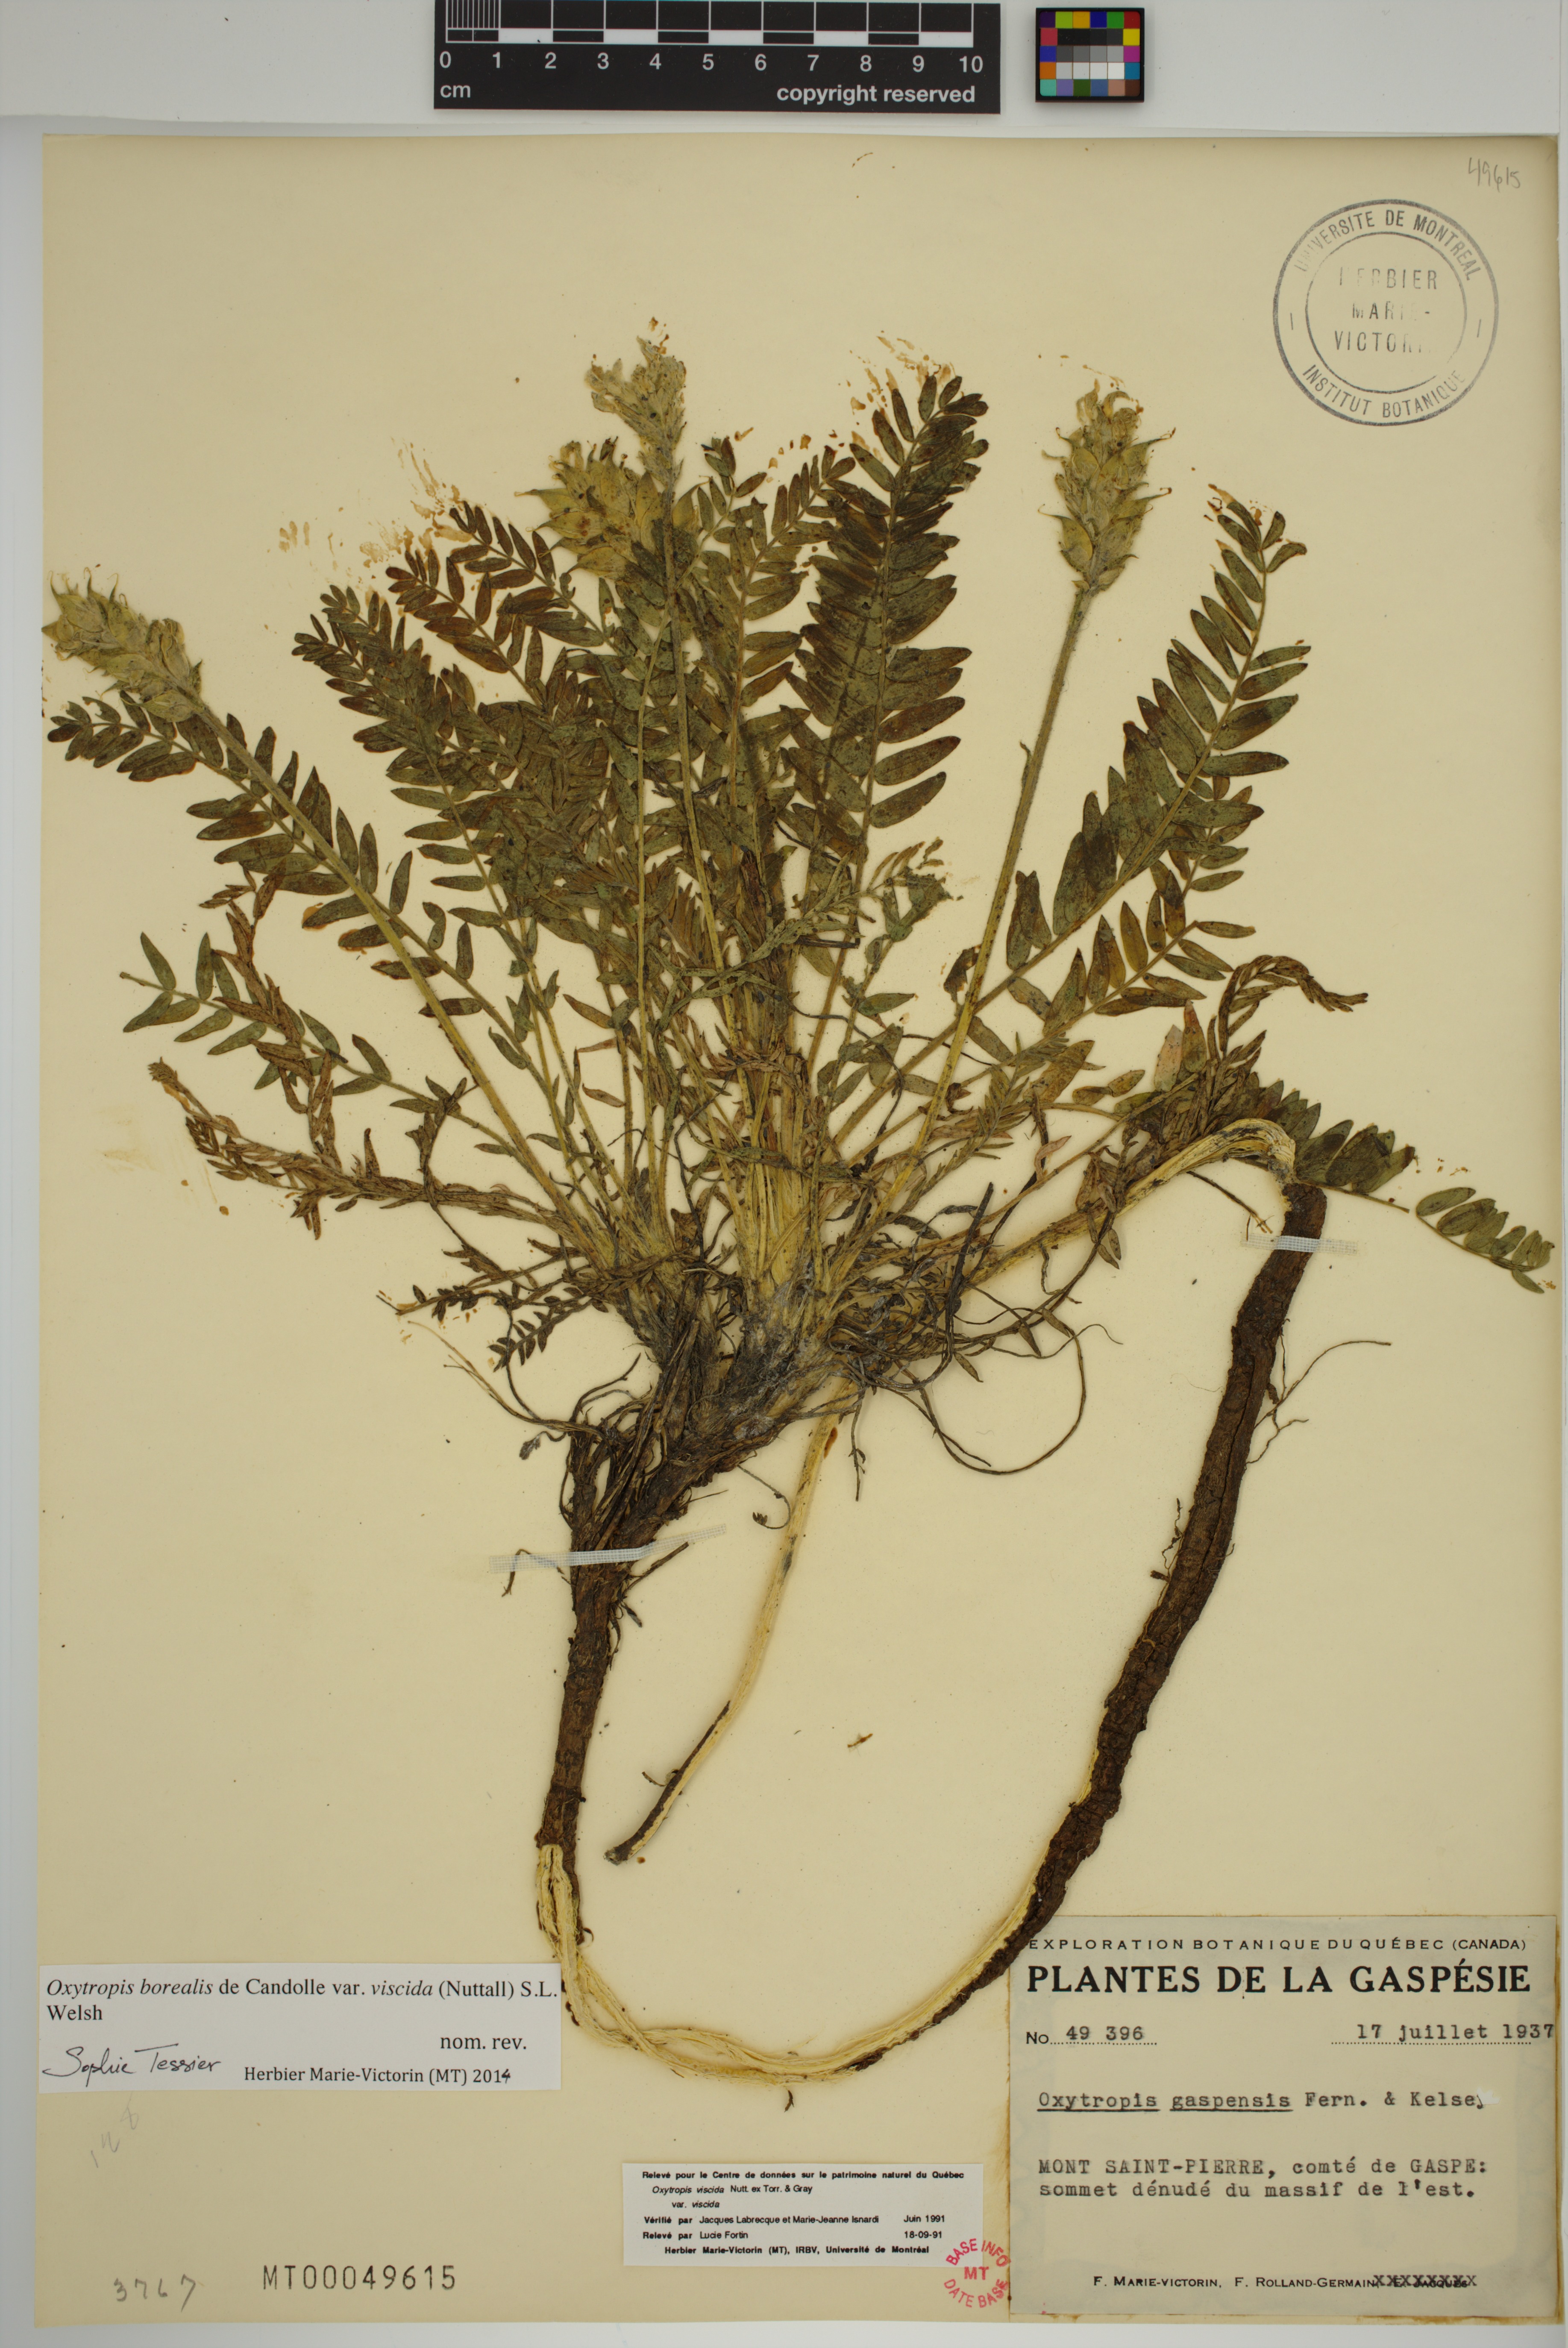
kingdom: Plantae
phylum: Tracheophyta
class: Magnoliopsida
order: Fabales
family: Fabaceae
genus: Oxytropis
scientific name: Oxytropis borealis
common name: Boreal locoweed
